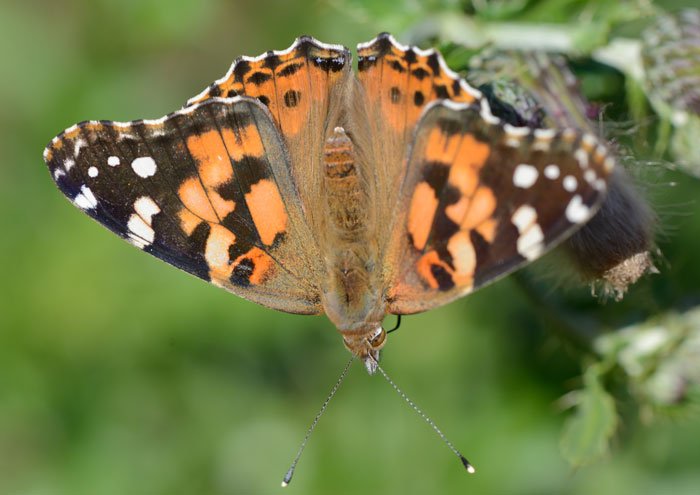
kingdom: Animalia
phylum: Arthropoda
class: Insecta
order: Lepidoptera
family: Nymphalidae
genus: Vanessa
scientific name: Vanessa cardui
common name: Painted Lady
